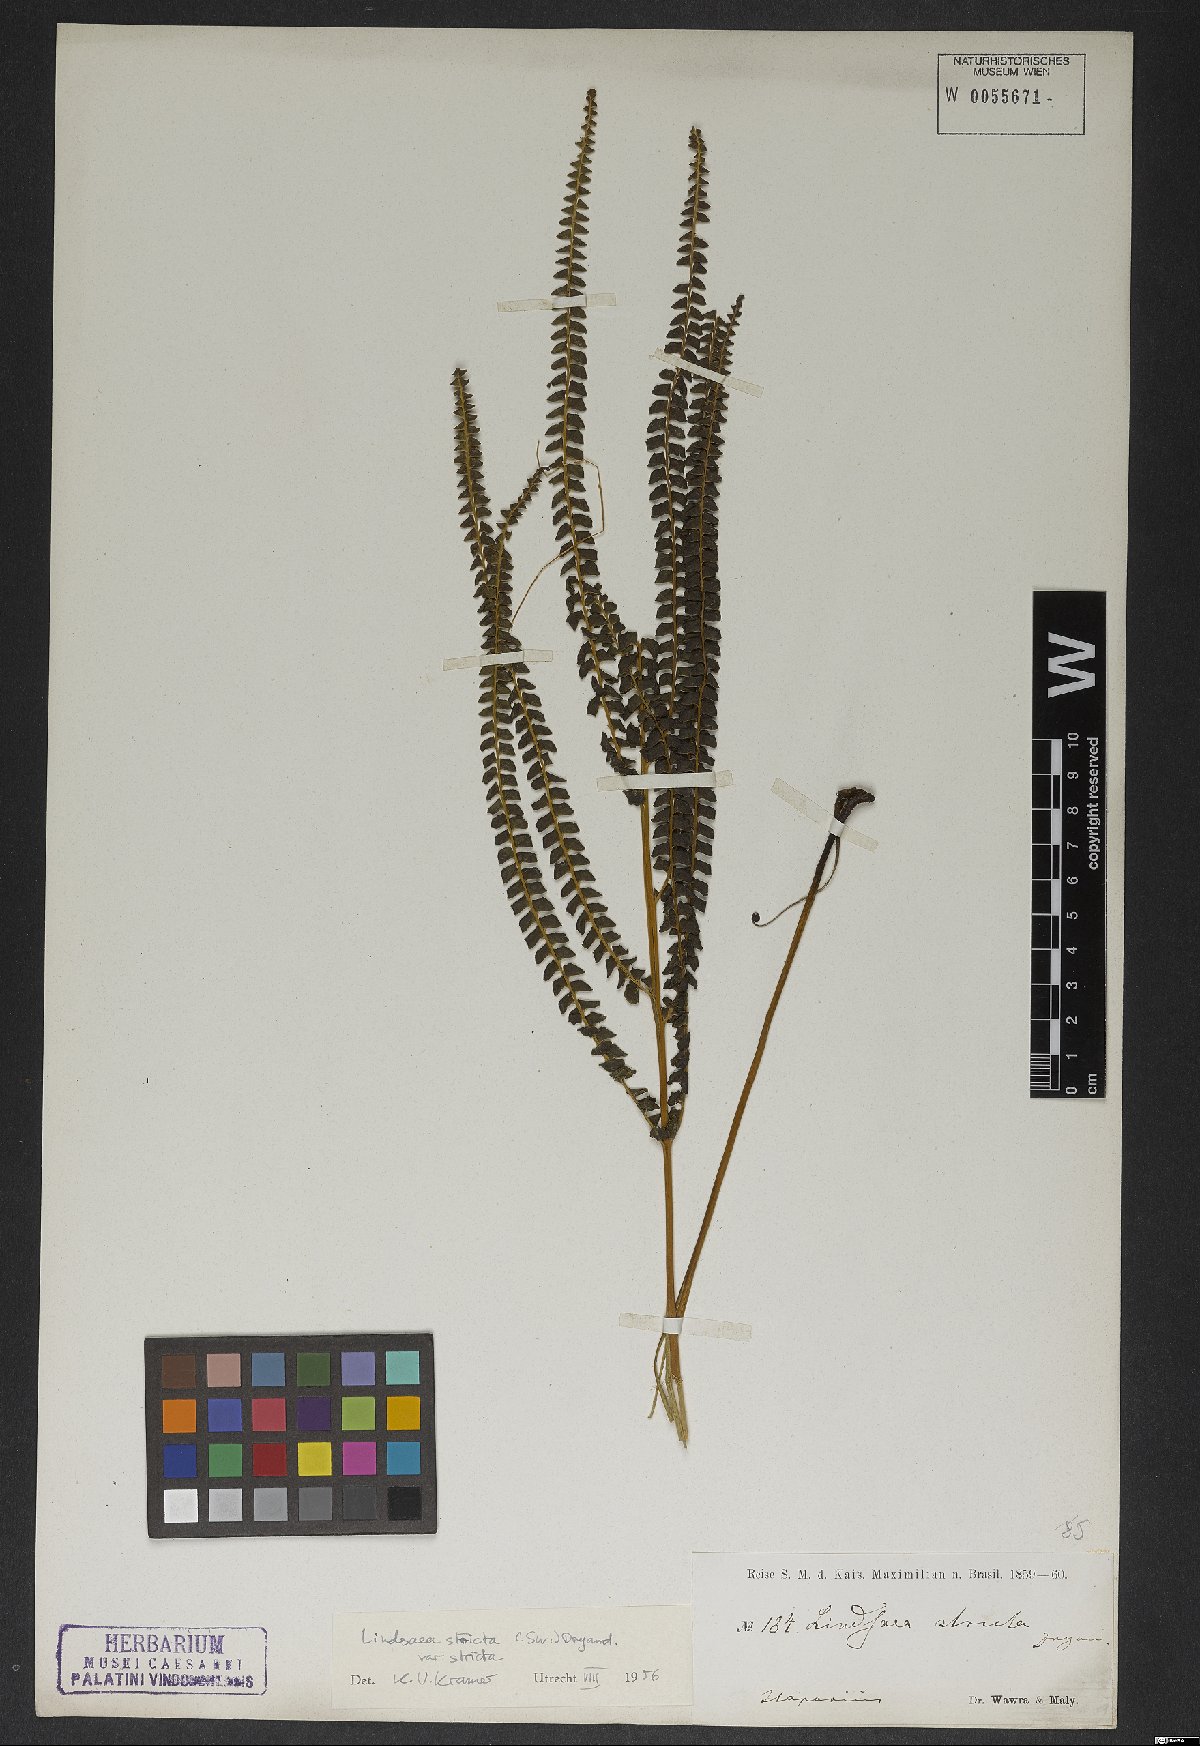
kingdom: Plantae
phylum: Tracheophyta
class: Polypodiopsida
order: Polypodiales
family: Lindsaeaceae
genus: Lindsaea
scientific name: Lindsaea stricta
